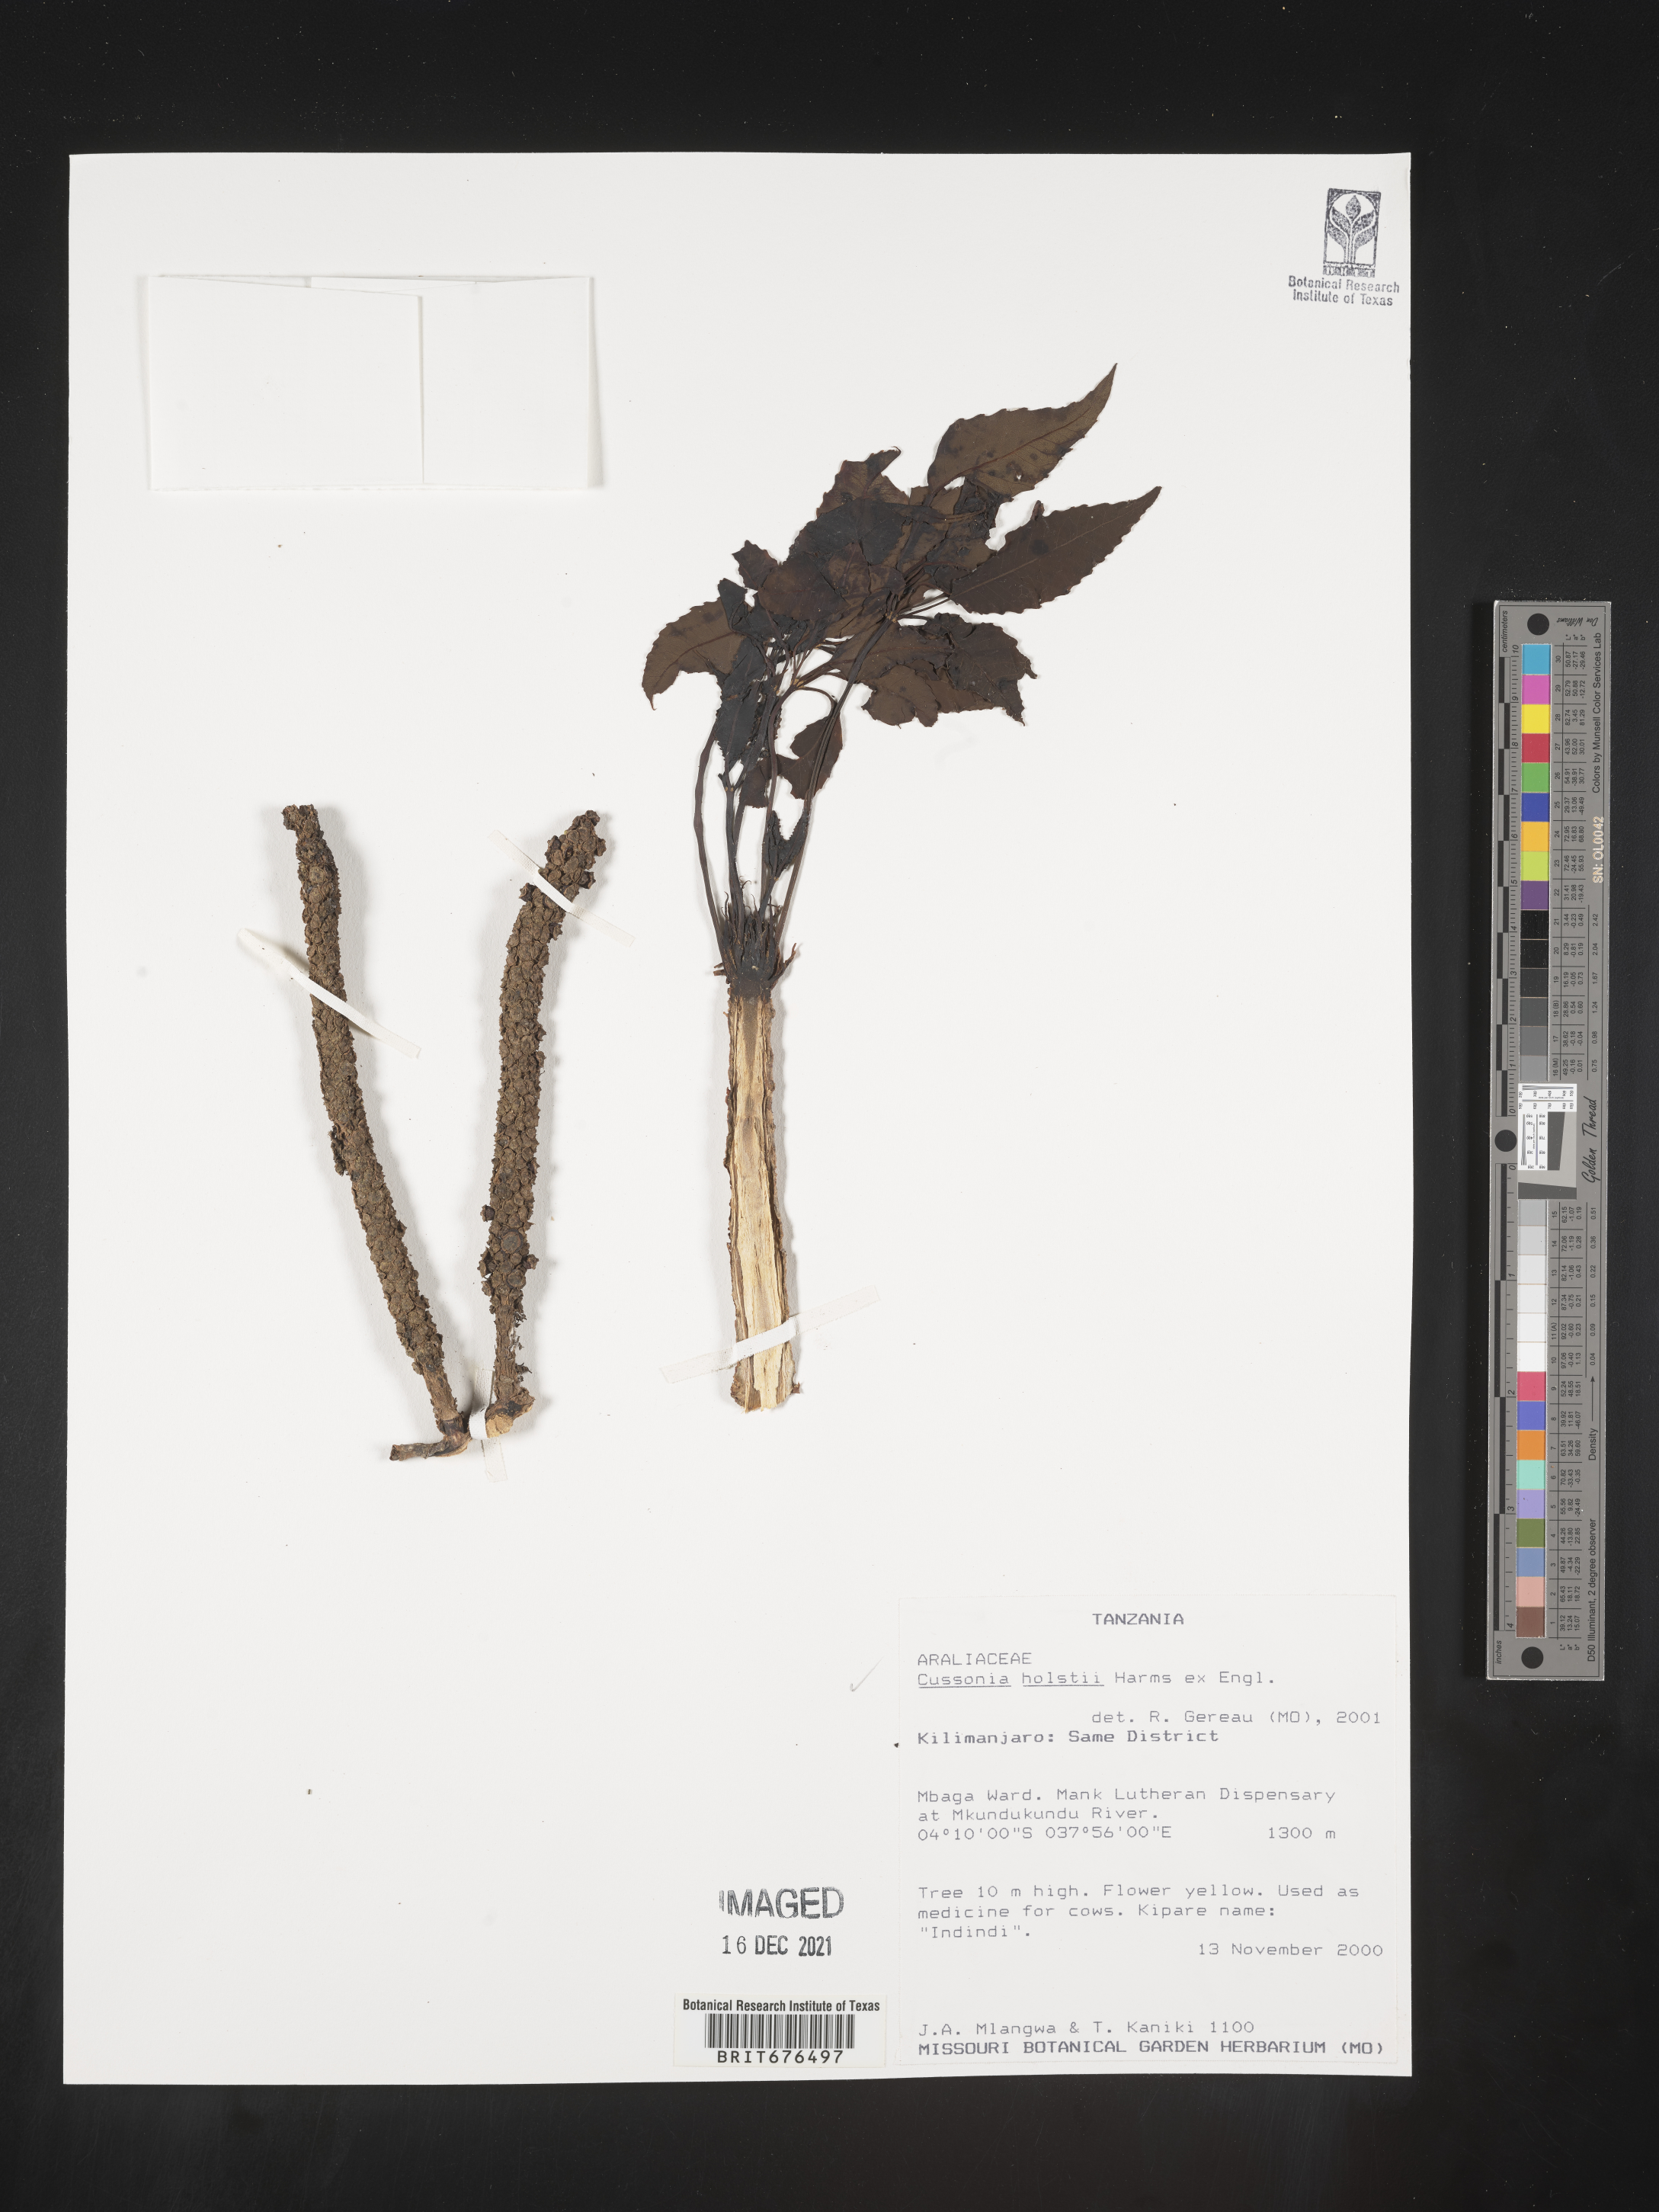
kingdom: Plantae
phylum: Tracheophyta
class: Magnoliopsida
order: Apiales
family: Araliaceae
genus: Cussonia
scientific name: Cussonia
